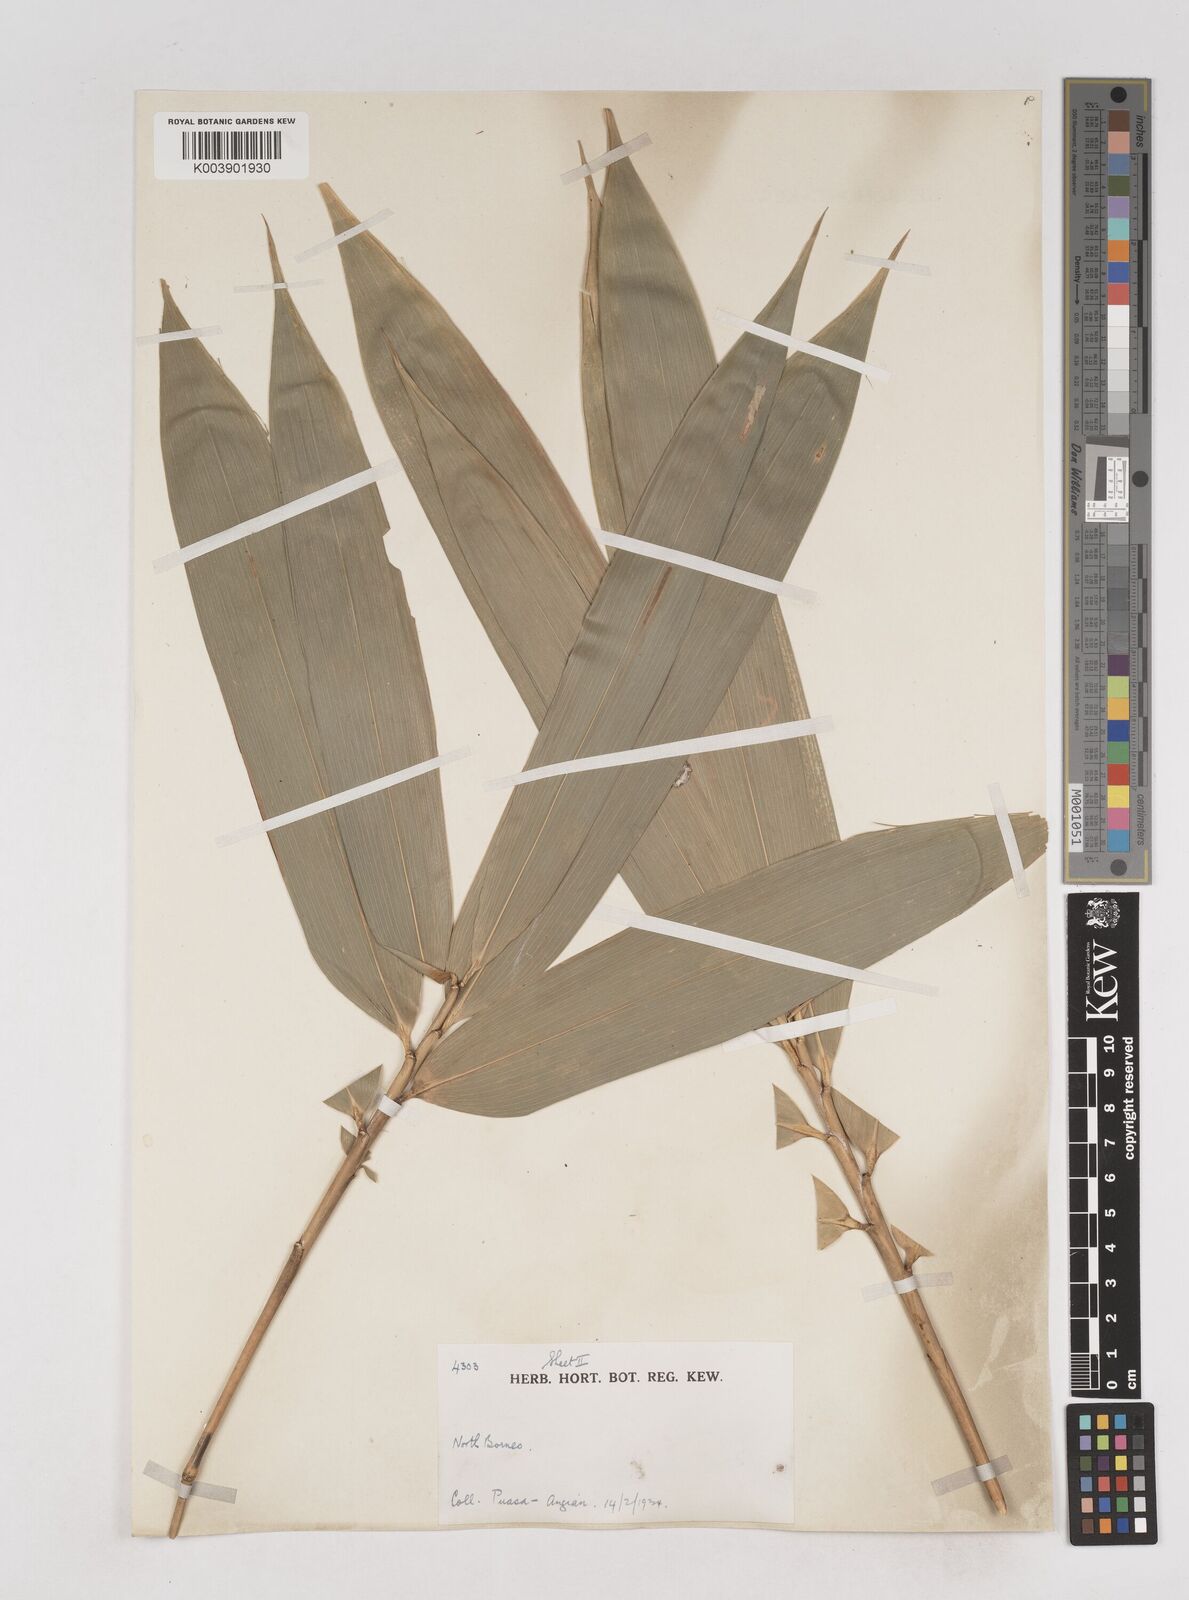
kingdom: Plantae
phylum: Tracheophyta
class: Liliopsida
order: Poales
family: Poaceae
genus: Schizostachyum
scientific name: Schizostachyum brachycladum
